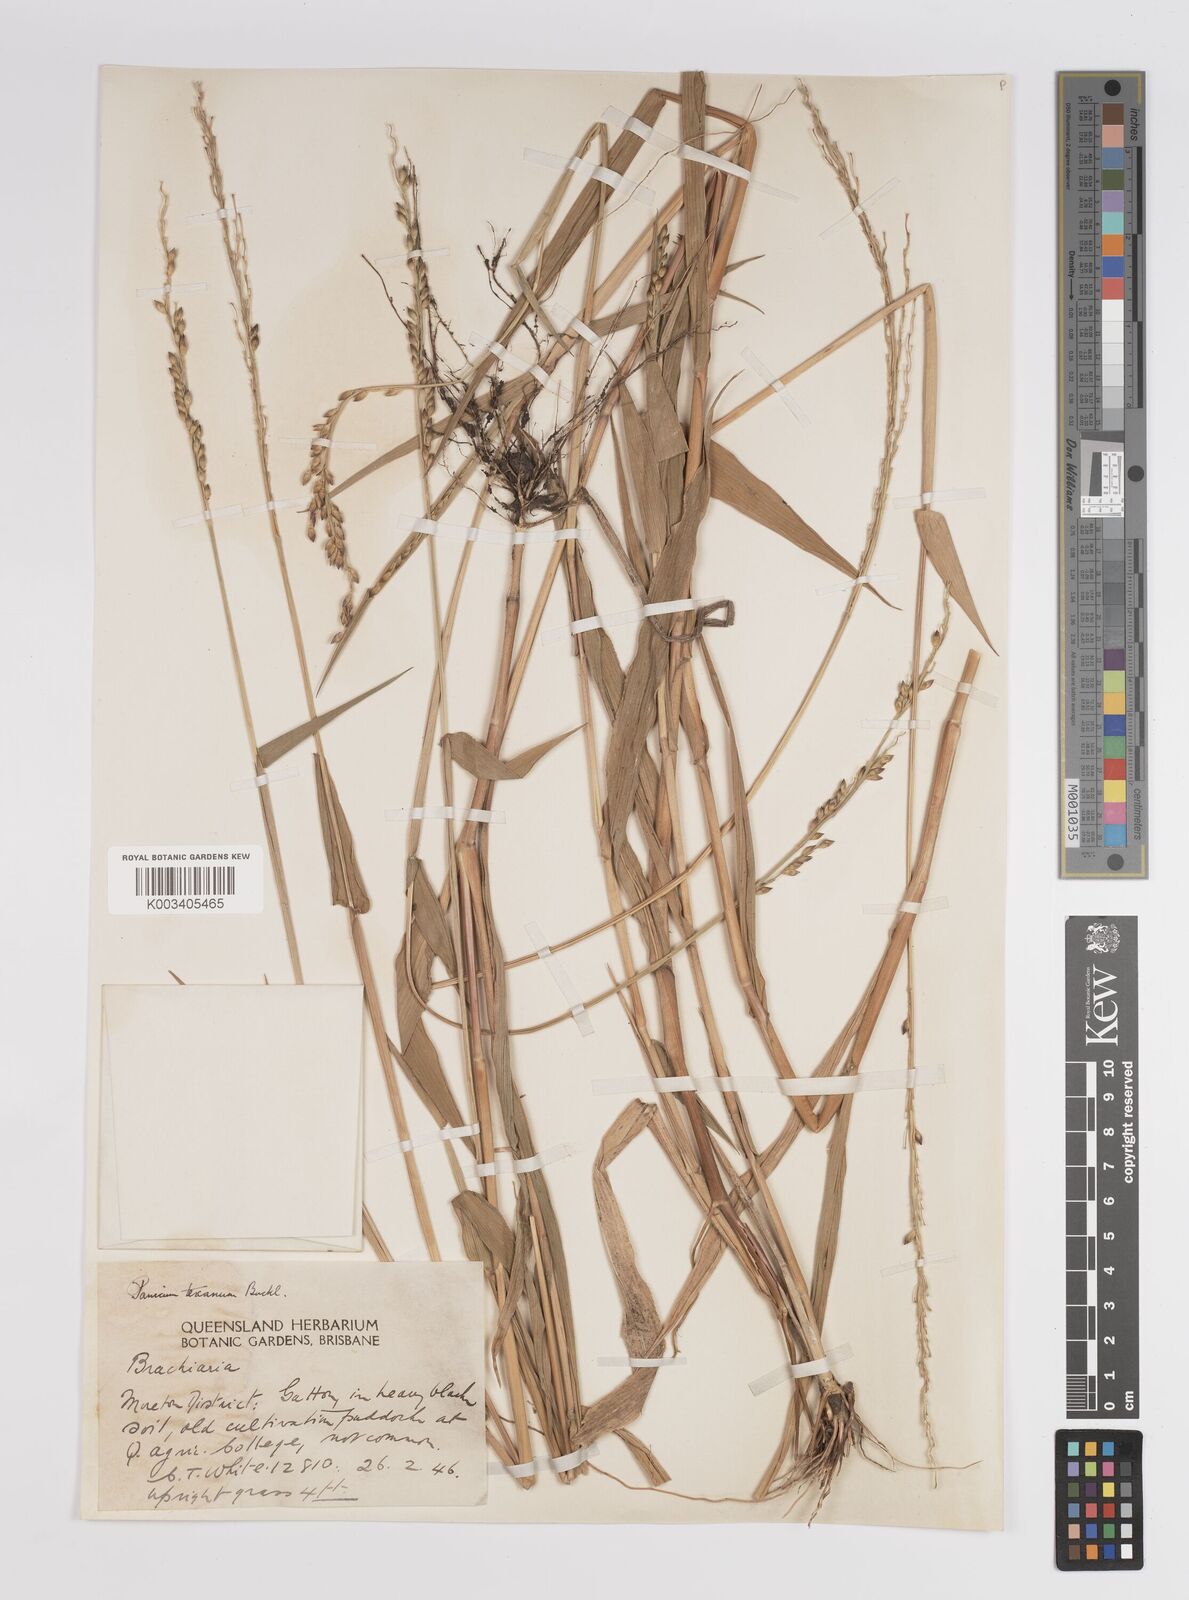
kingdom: Plantae
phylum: Tracheophyta
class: Liliopsida
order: Poales
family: Poaceae
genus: Urochloa
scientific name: Urochloa texana
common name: Texas millet
